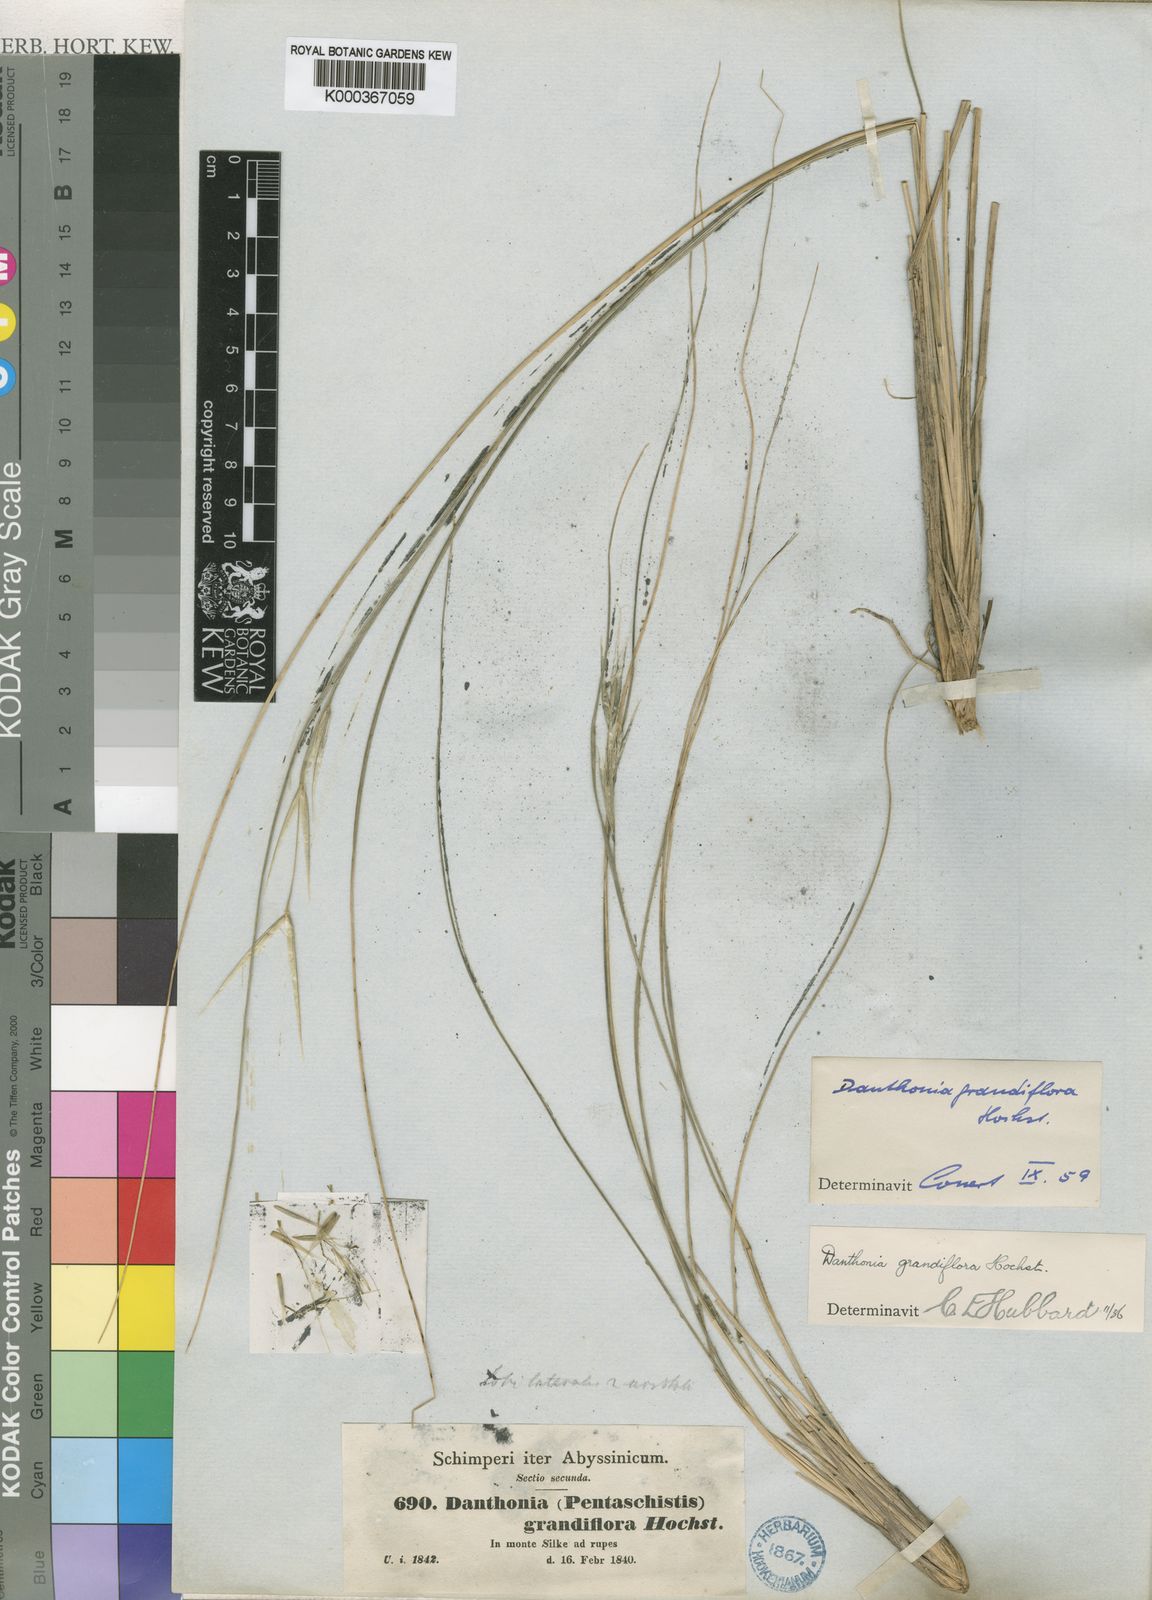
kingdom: Plantae
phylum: Tracheophyta
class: Liliopsida
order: Poales
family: Poaceae
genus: Merxmuellera
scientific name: Merxmuellera grandiflora
